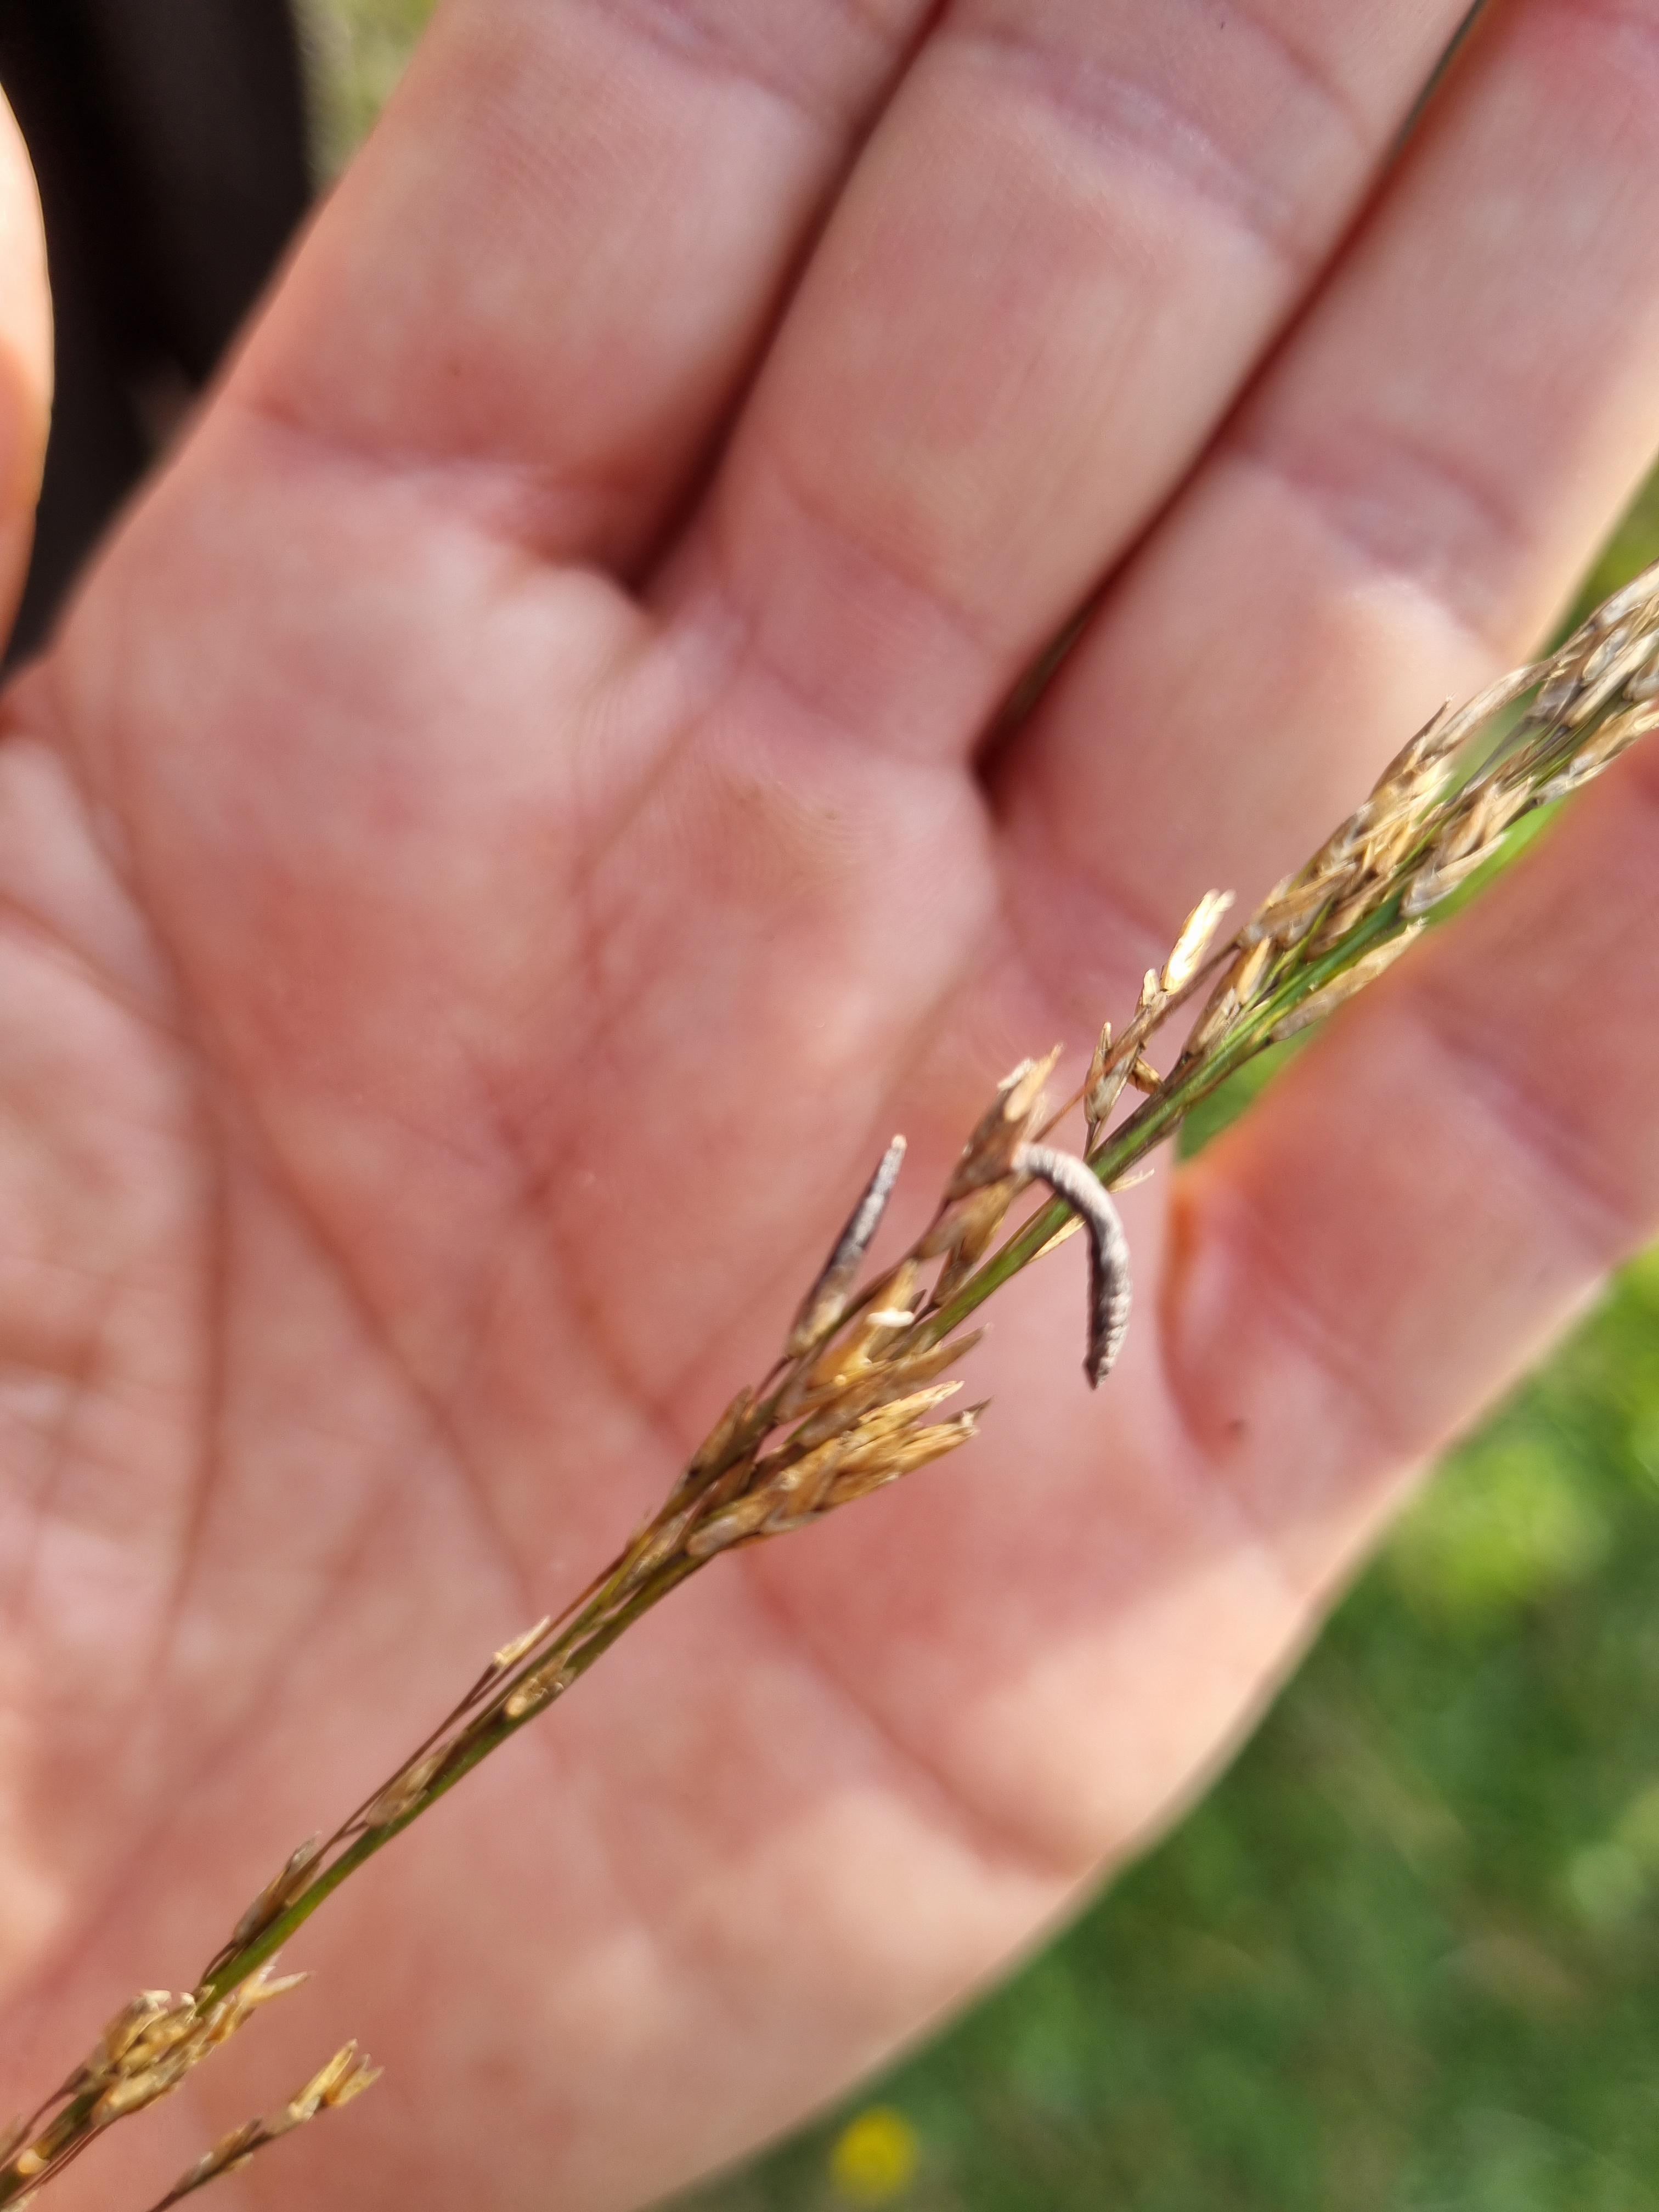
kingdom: Fungi
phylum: Ascomycota
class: Sordariomycetes
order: Hypocreales
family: Clavicipitaceae
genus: Claviceps
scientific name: Claviceps purpurea
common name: almindelig meldrøjer
